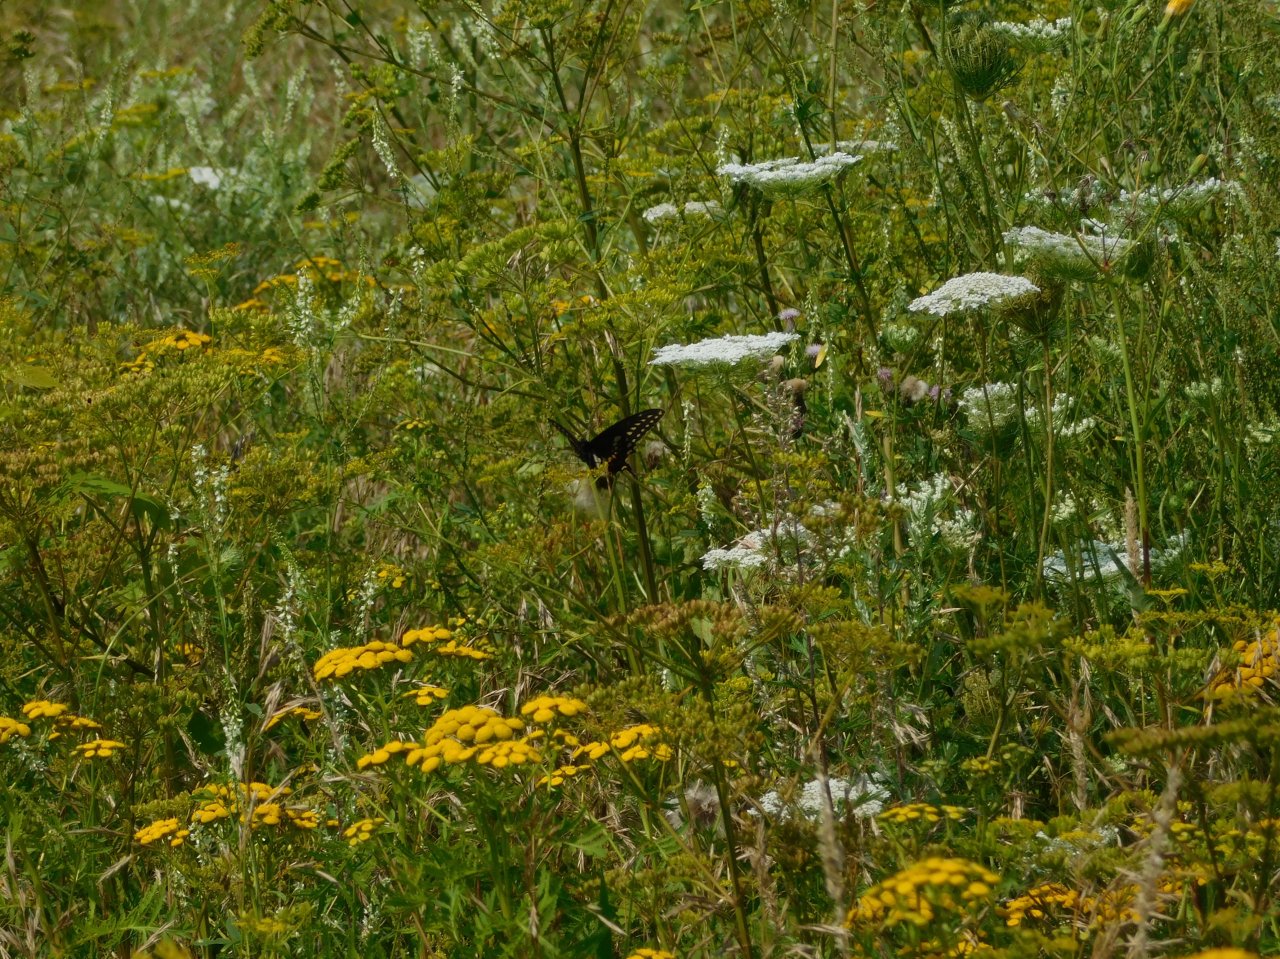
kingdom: Animalia
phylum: Arthropoda
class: Insecta
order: Lepidoptera
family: Papilionidae
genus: Papilio
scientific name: Papilio polyxenes
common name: Black Swallowtail
